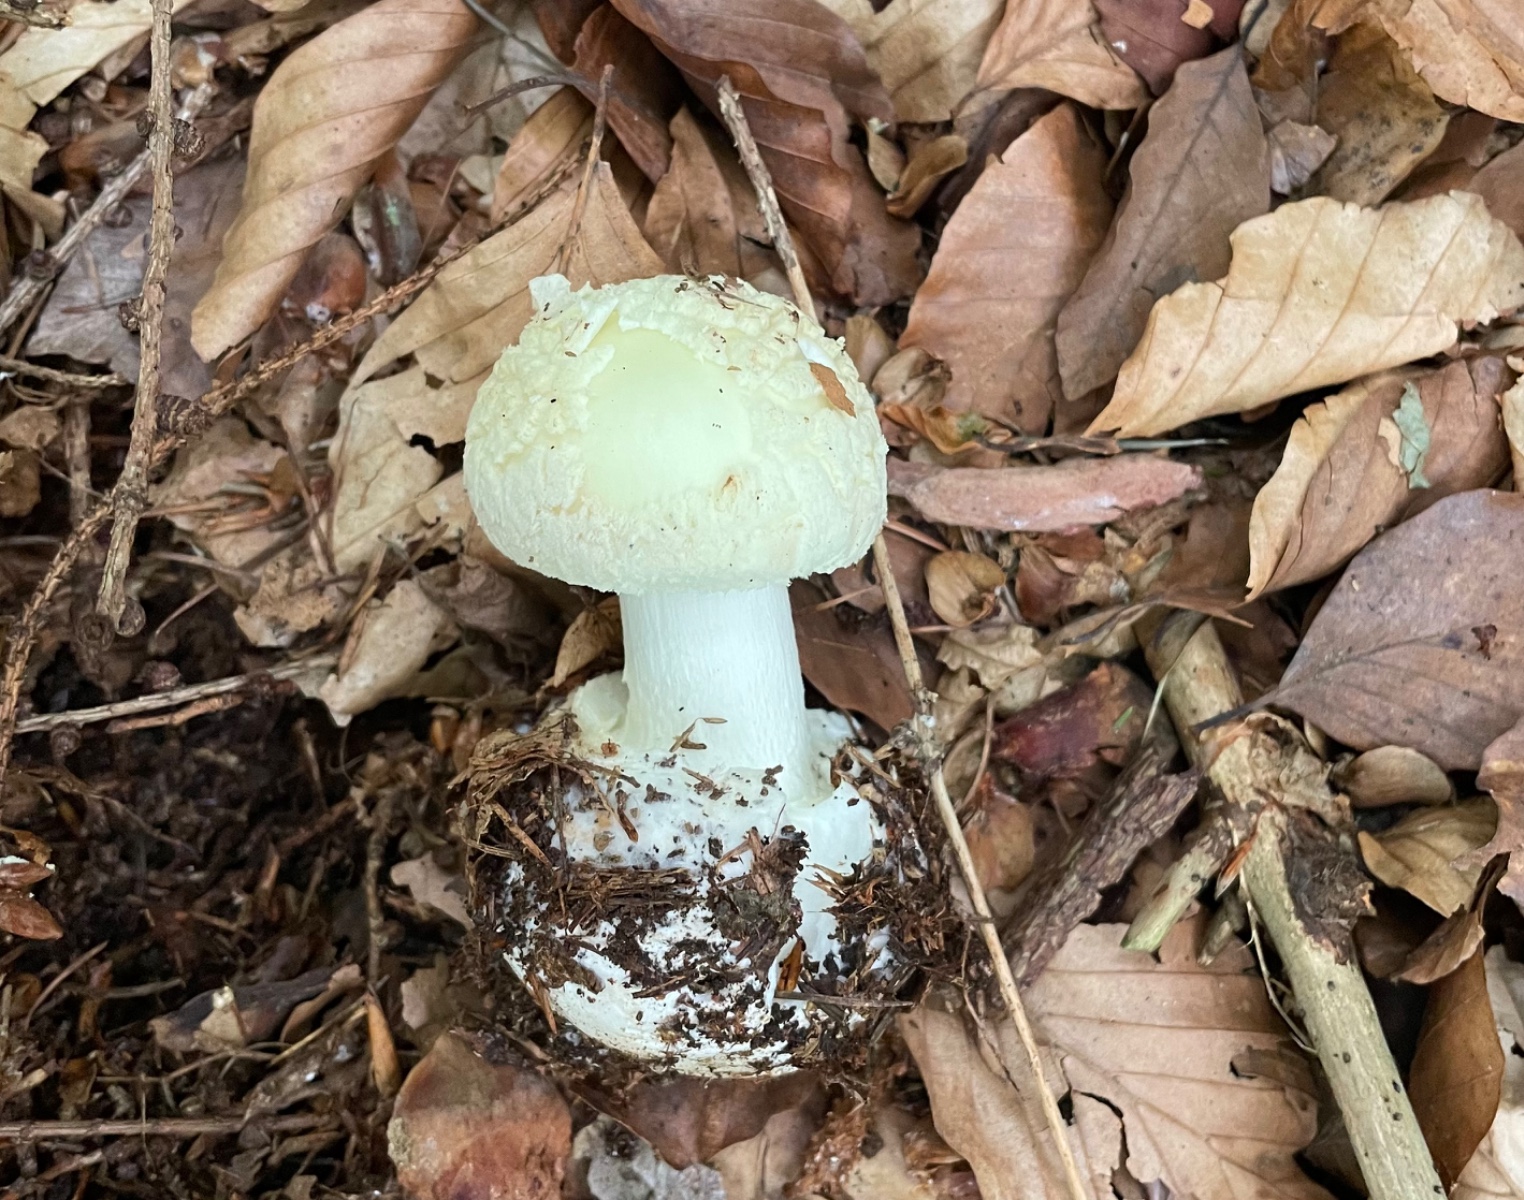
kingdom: Fungi
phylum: Basidiomycota
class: Agaricomycetes
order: Agaricales
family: Amanitaceae
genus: Amanita
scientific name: Amanita citrina
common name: kugleknoldet fluesvamp
